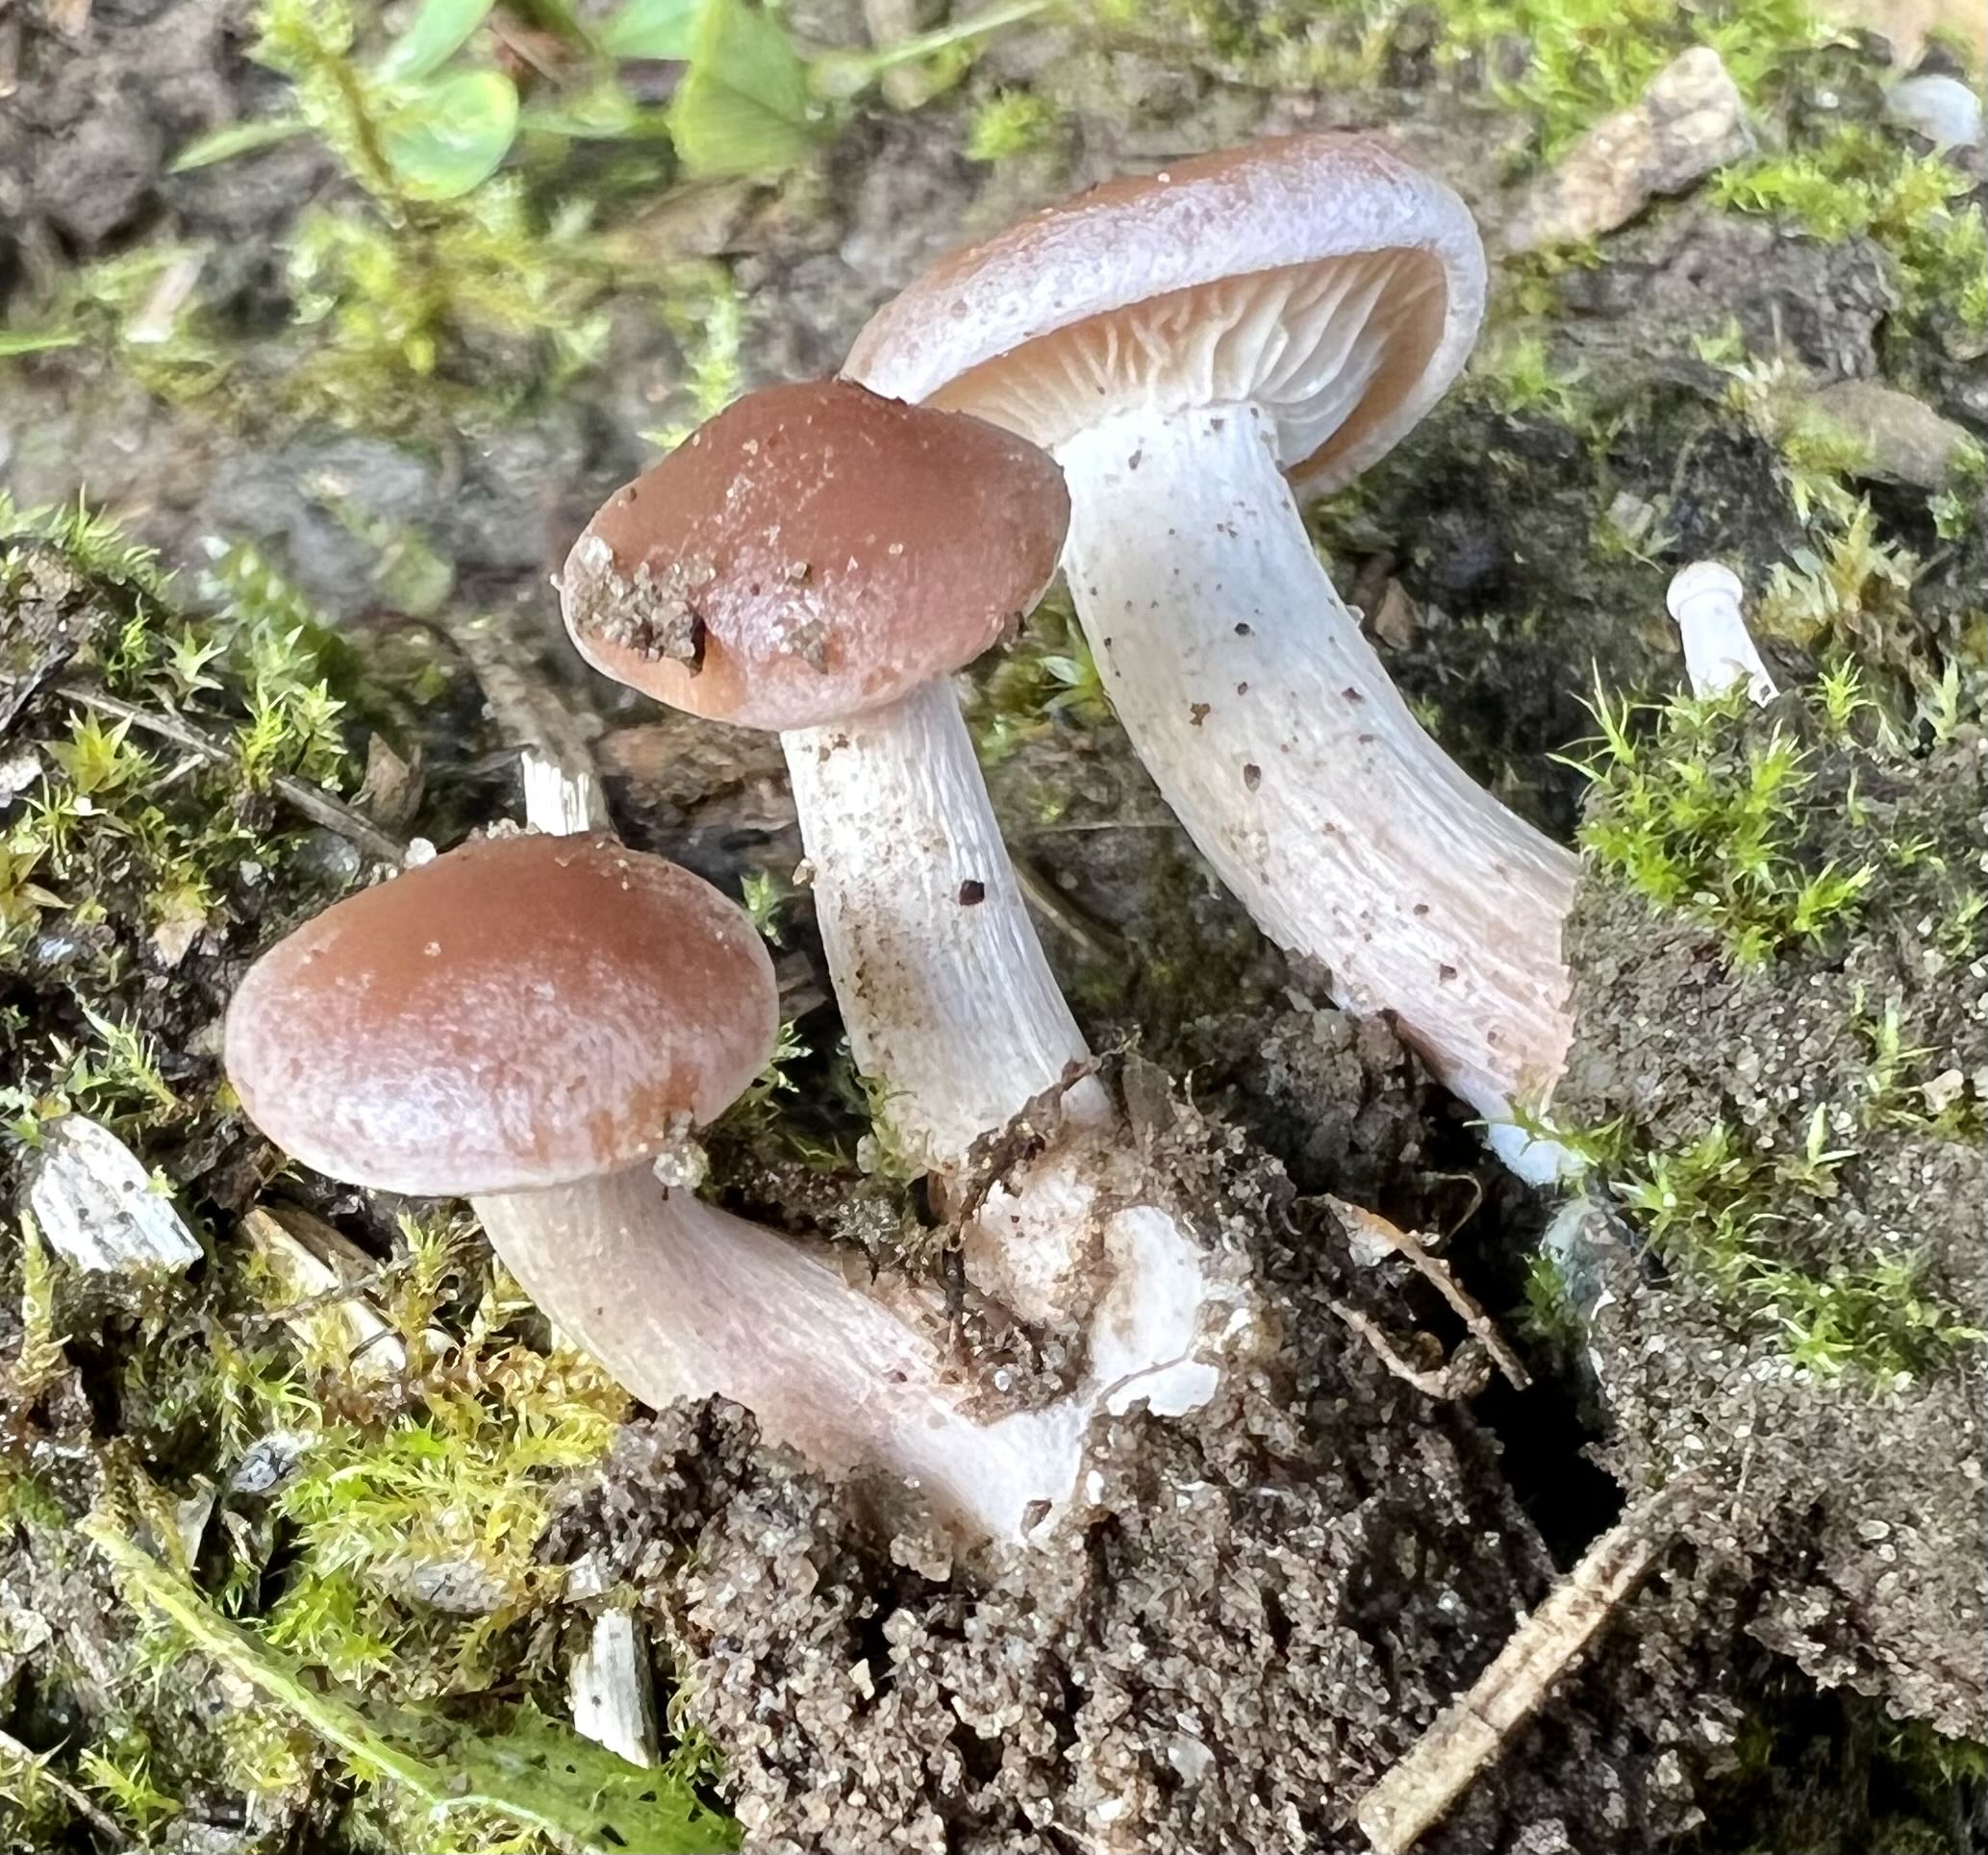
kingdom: Fungi
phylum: Basidiomycota
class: Agaricomycetes
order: Agaricales
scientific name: Agaricales
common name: champignonordenen
